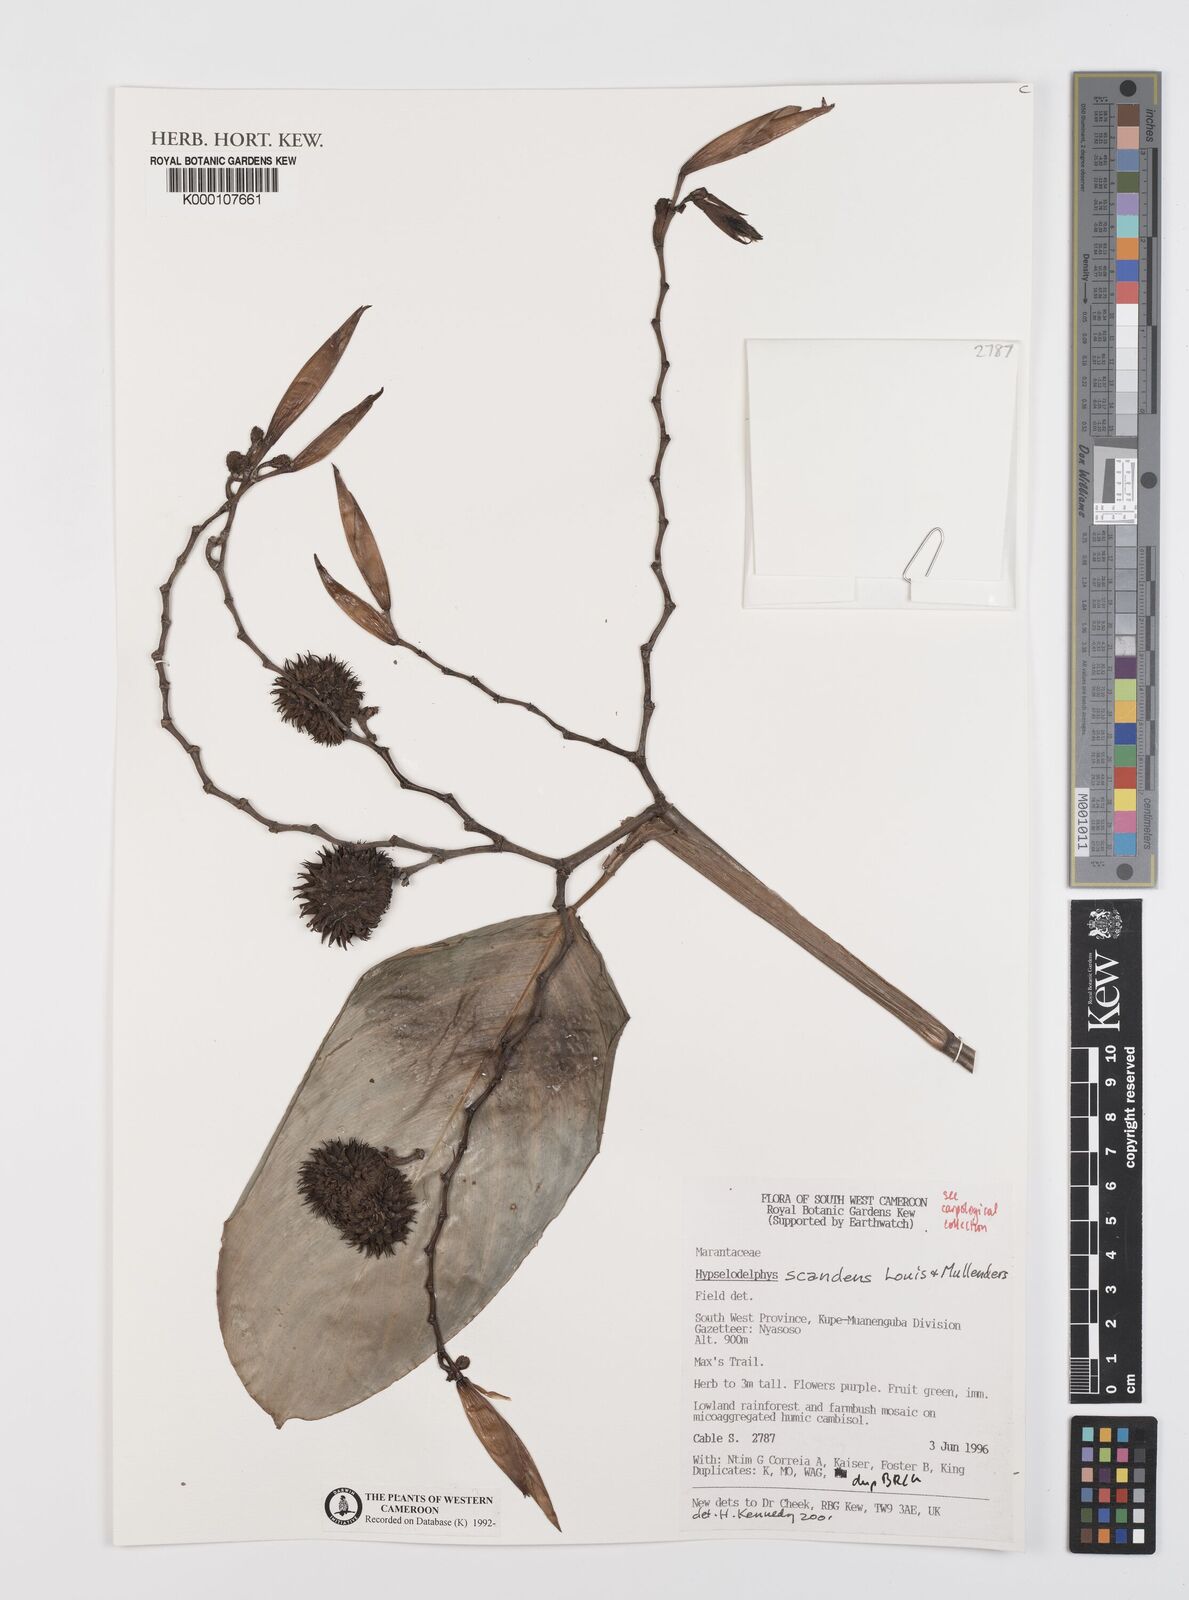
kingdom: Plantae
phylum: Tracheophyta
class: Liliopsida
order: Zingiberales
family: Marantaceae
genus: Hypselodelphys
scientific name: Hypselodelphys scandens
